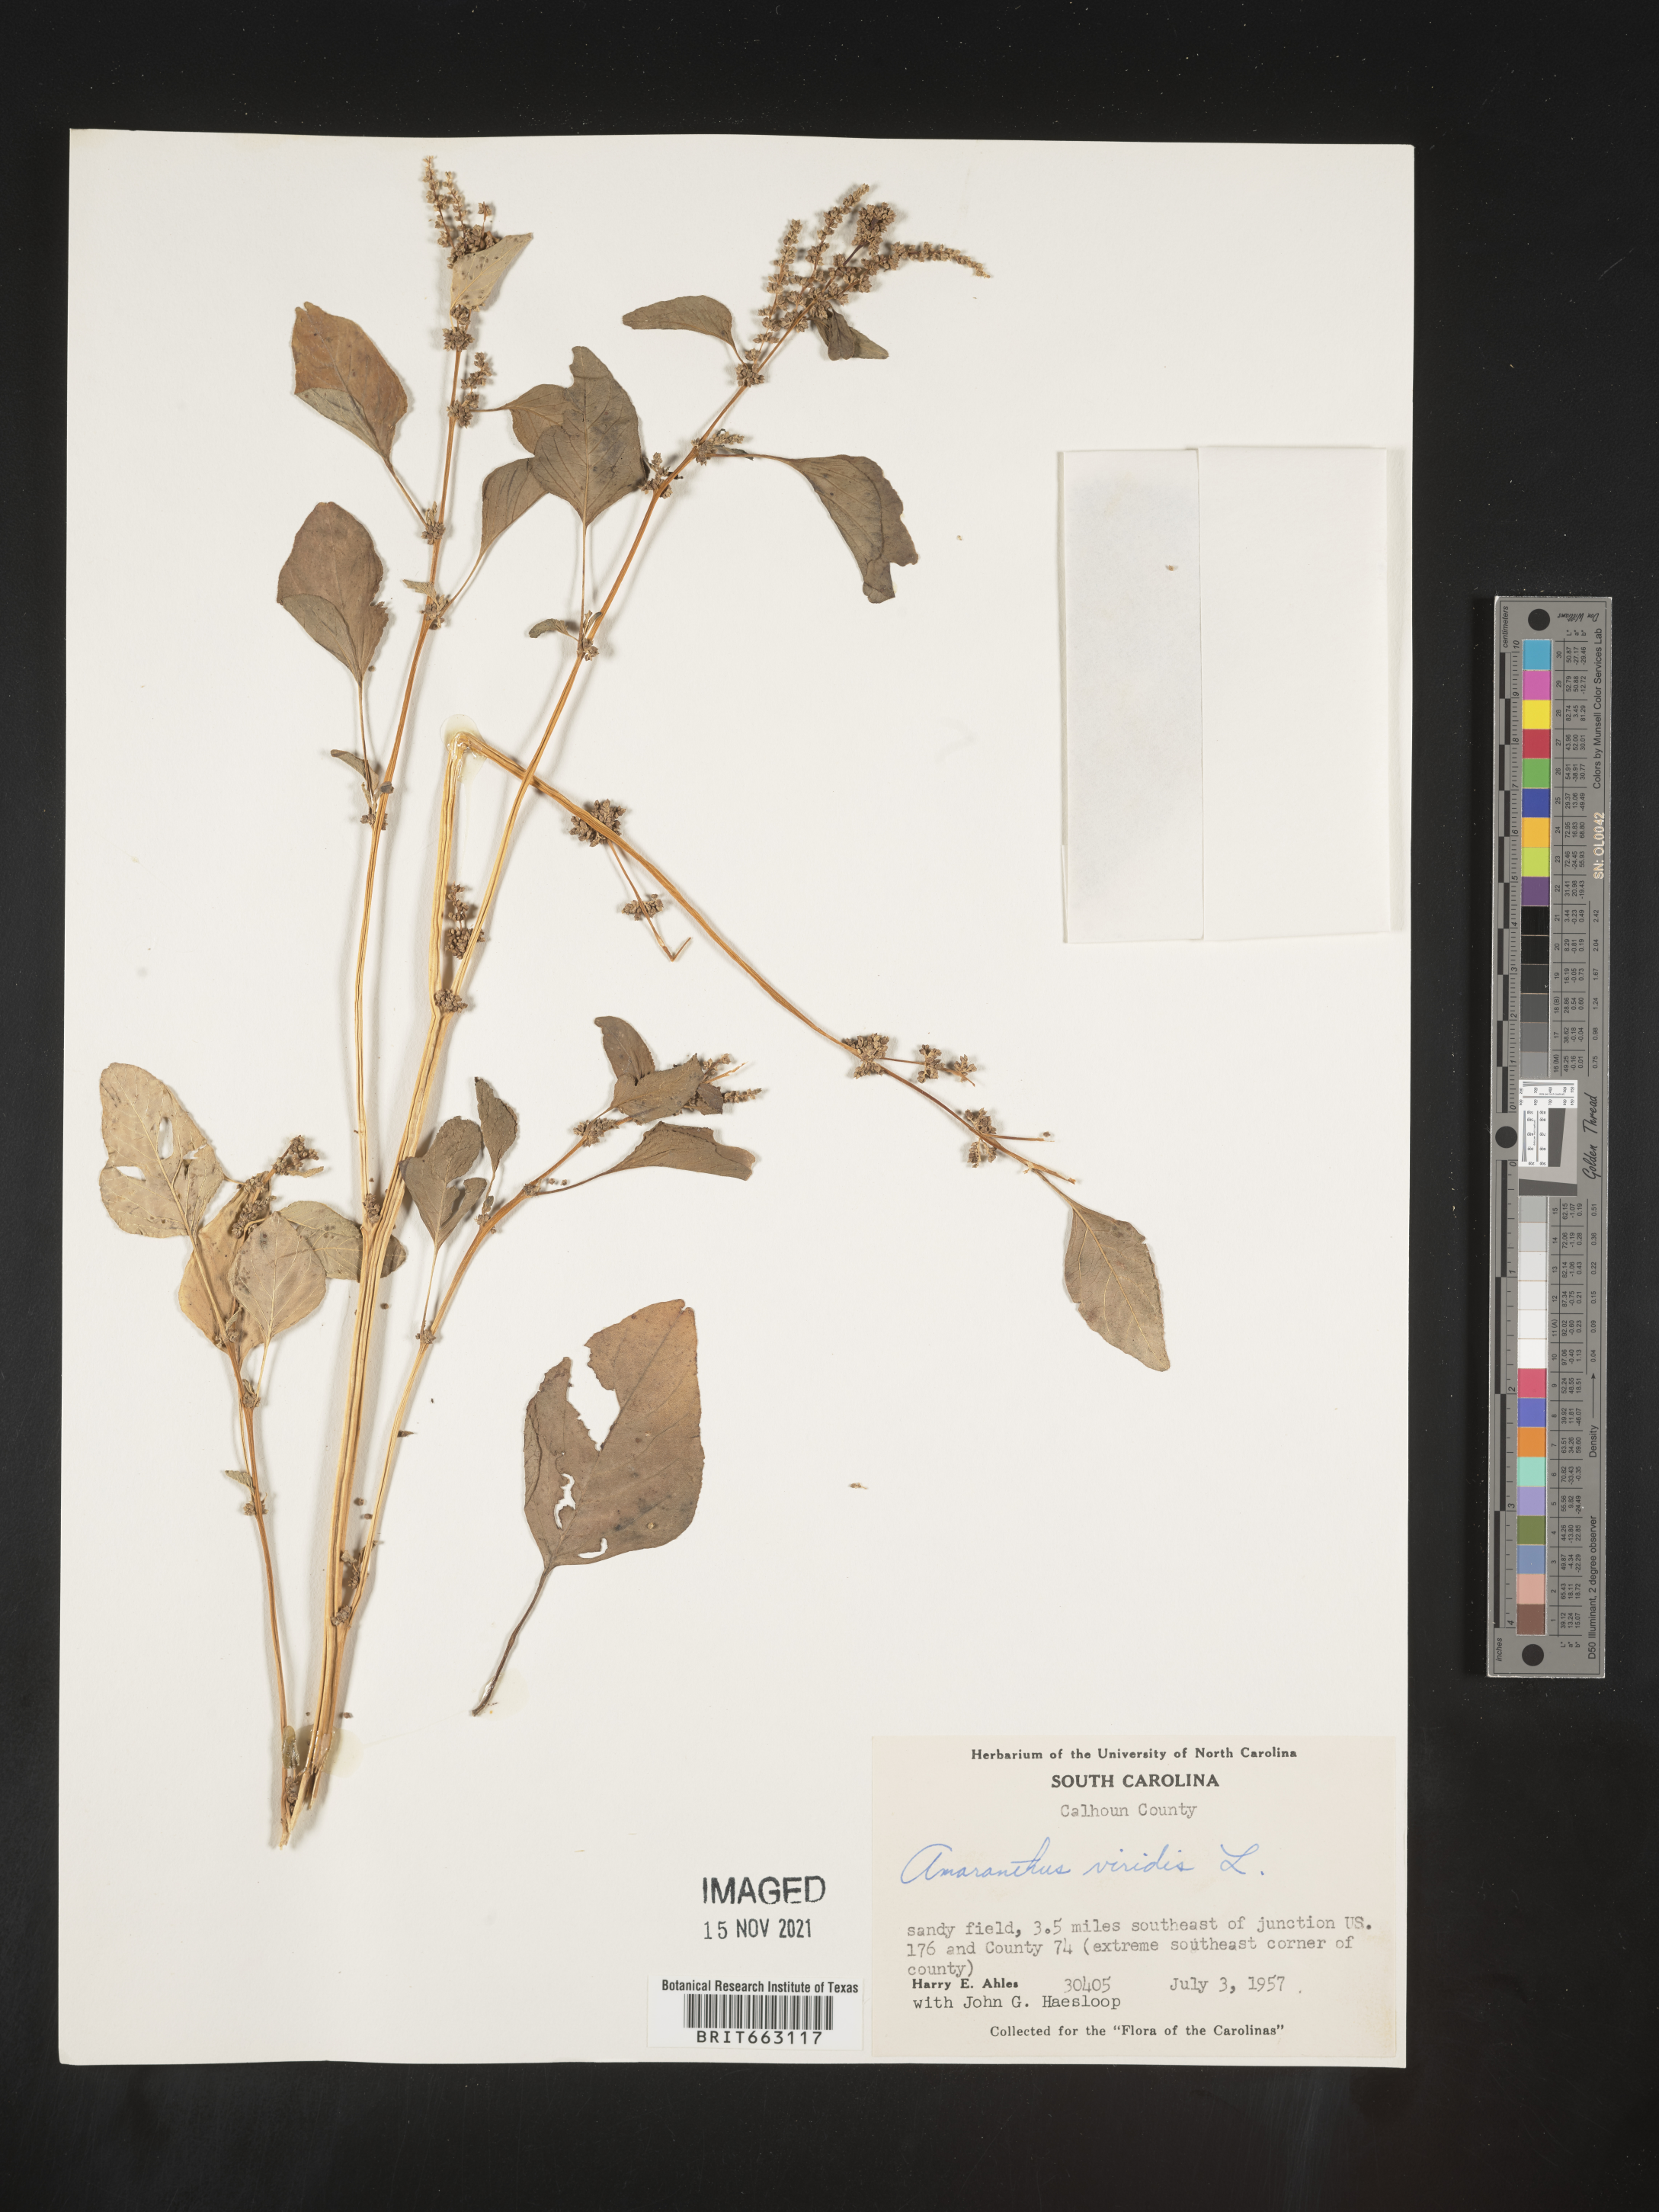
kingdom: Plantae
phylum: Tracheophyta
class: Magnoliopsida
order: Caryophyllales
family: Amaranthaceae
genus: Amaranthus
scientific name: Amaranthus viridis
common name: Slender amaranth
